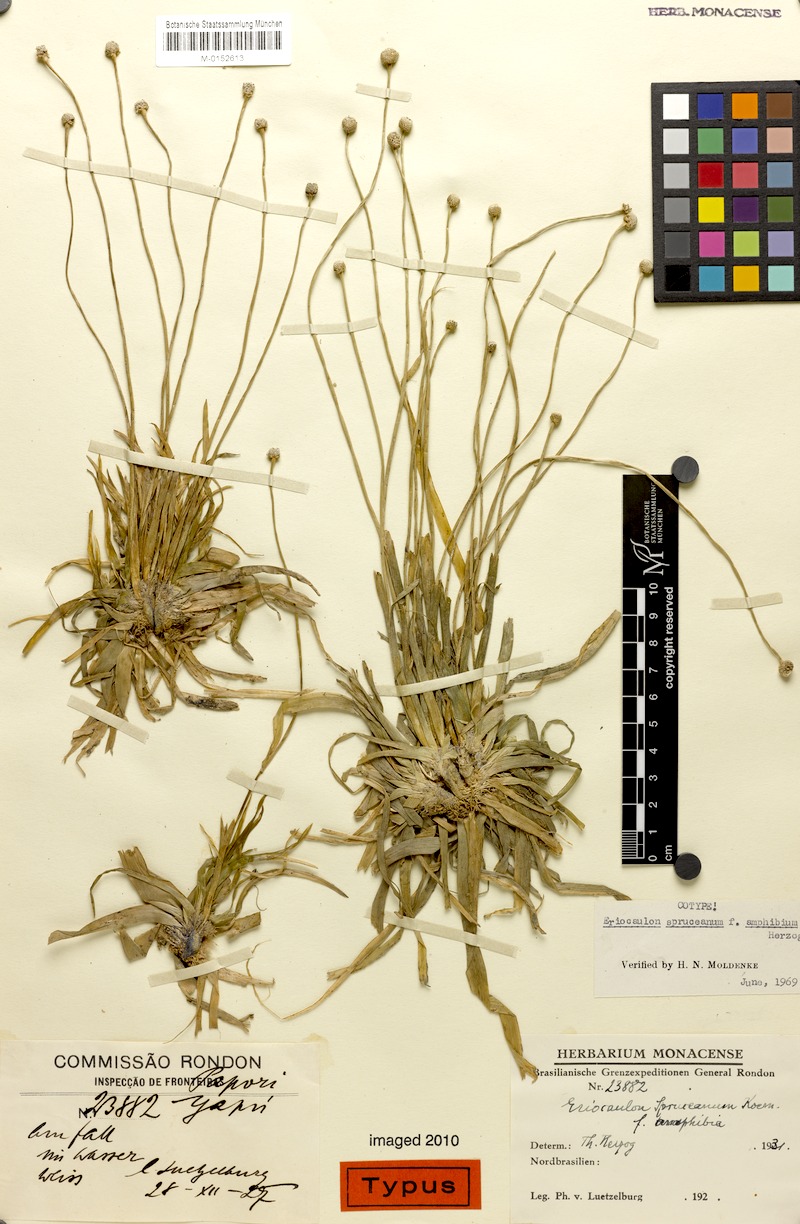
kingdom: Plantae
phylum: Tracheophyta
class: Liliopsida
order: Poales
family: Eriocaulaceae
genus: Eriocaulon
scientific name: Eriocaulon spruceanum
